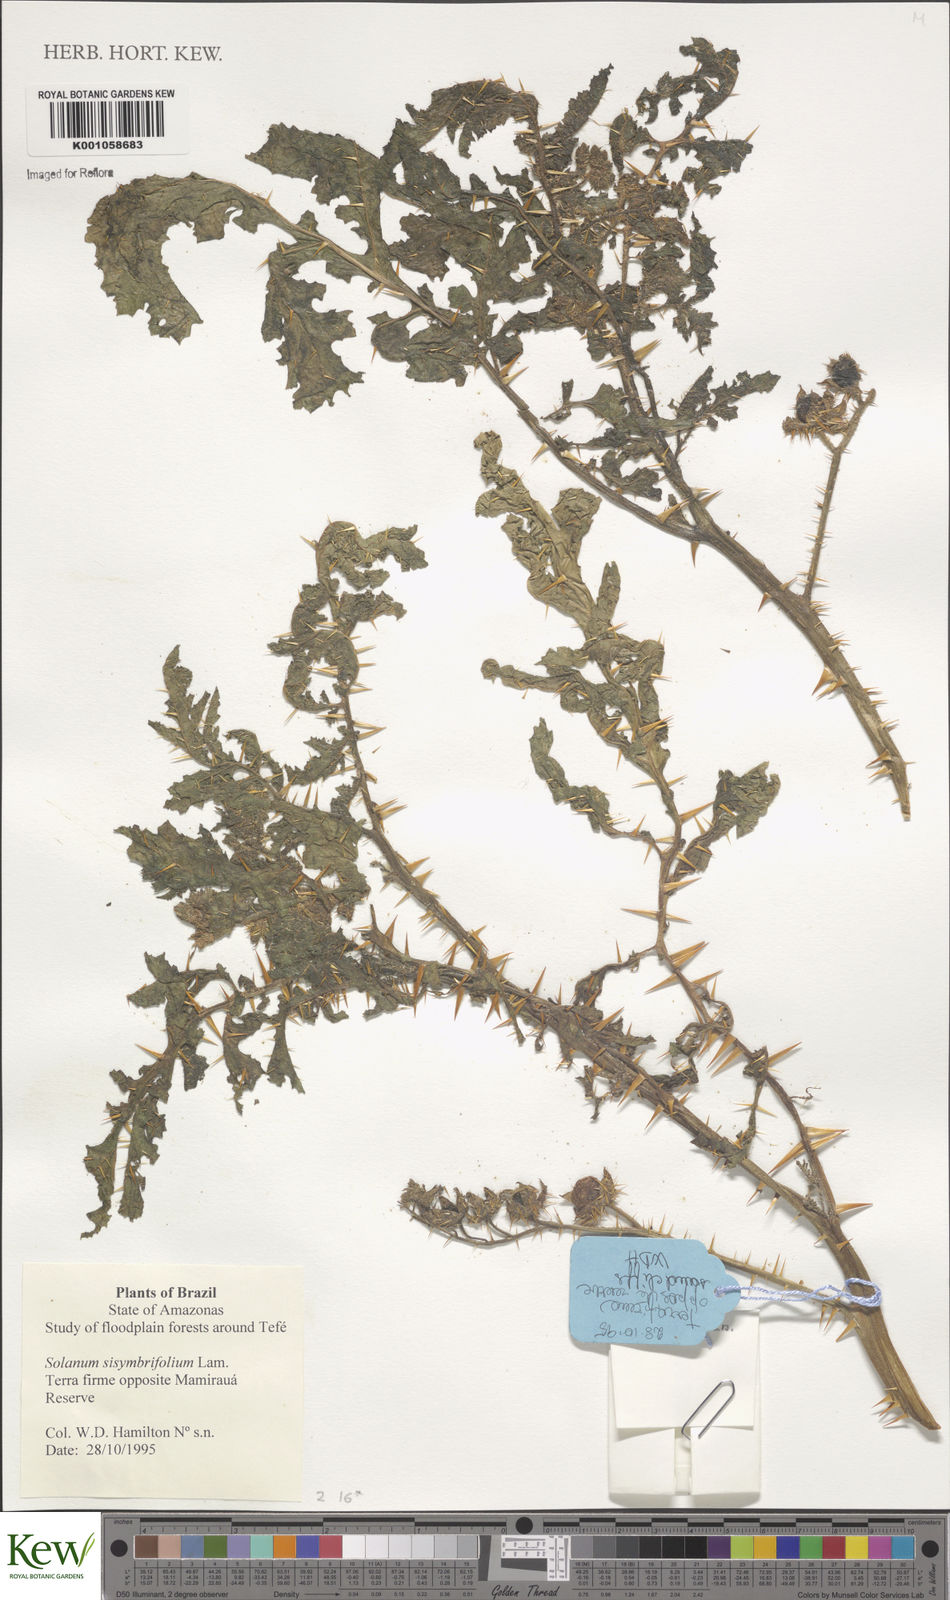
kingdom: Plantae
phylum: Tracheophyta
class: Magnoliopsida
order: Solanales
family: Solanaceae
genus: Solanum
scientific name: Solanum sisymbriifolium
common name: Red buffalo-bur
